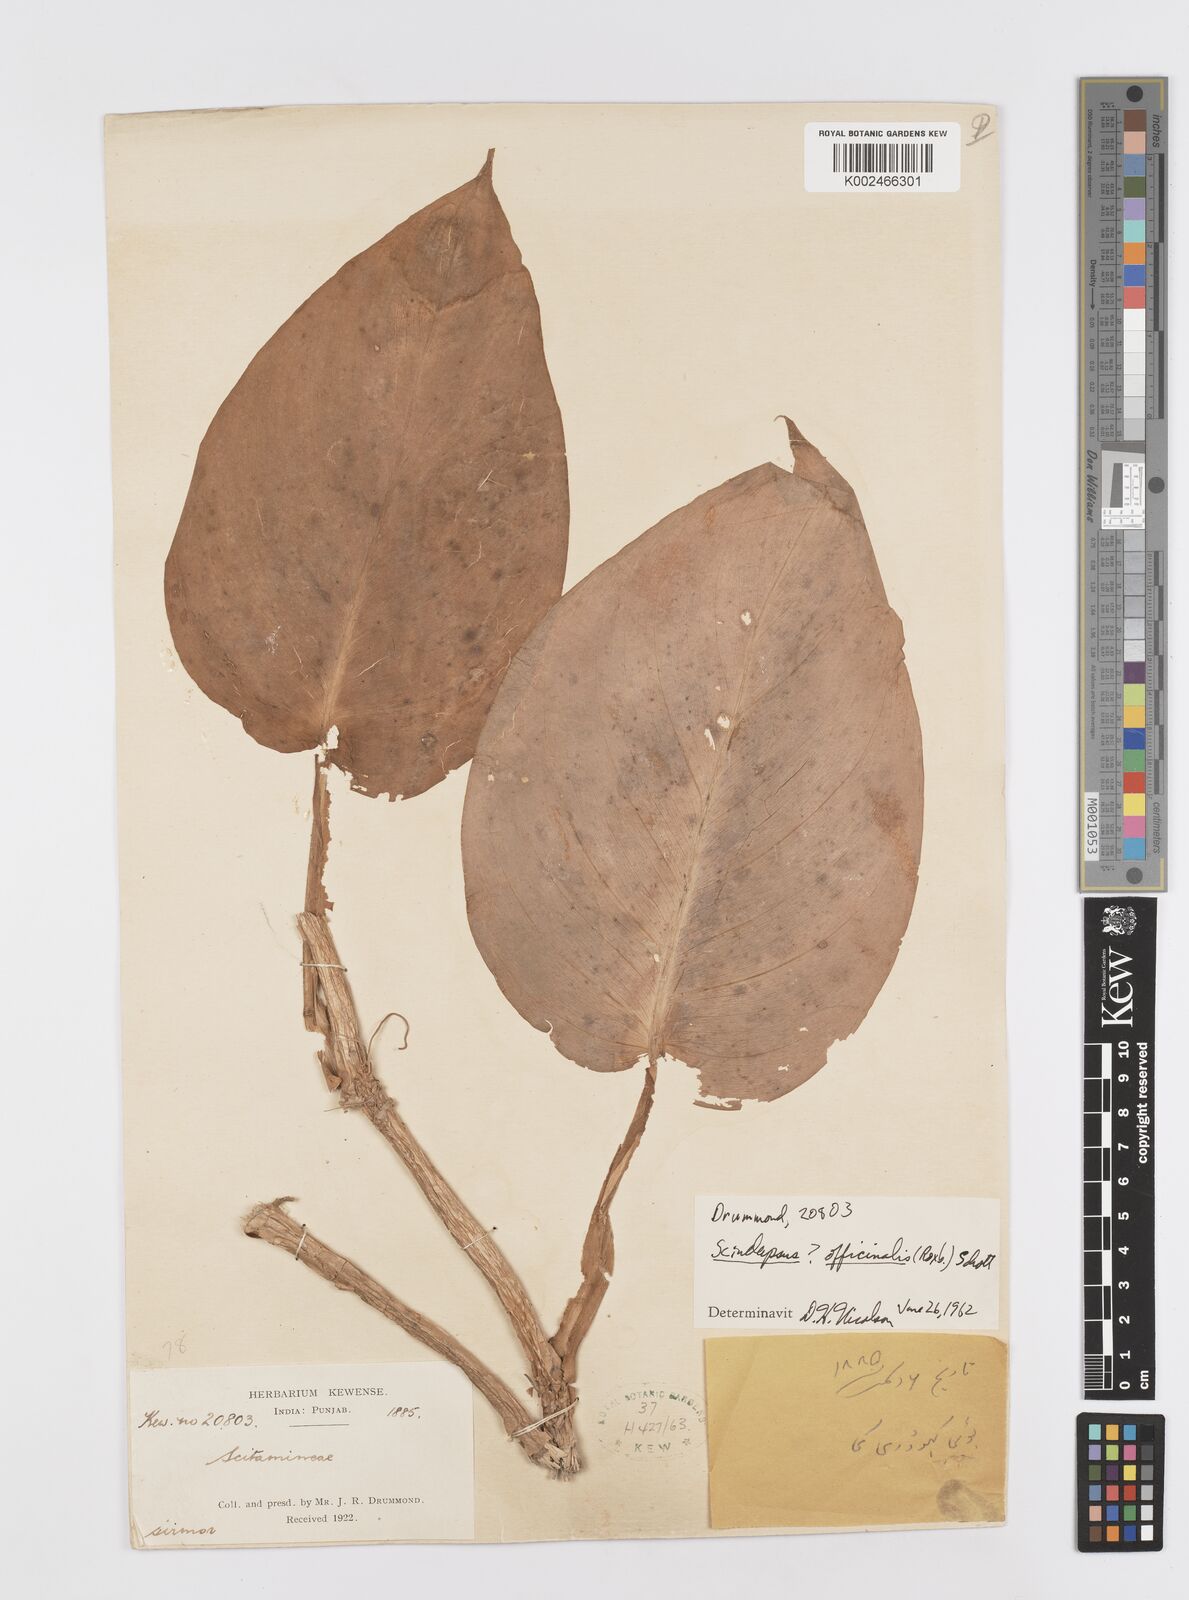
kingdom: Plantae
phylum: Tracheophyta
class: Liliopsida
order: Alismatales
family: Araceae
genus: Scindapsus
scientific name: Scindapsus officinalis
